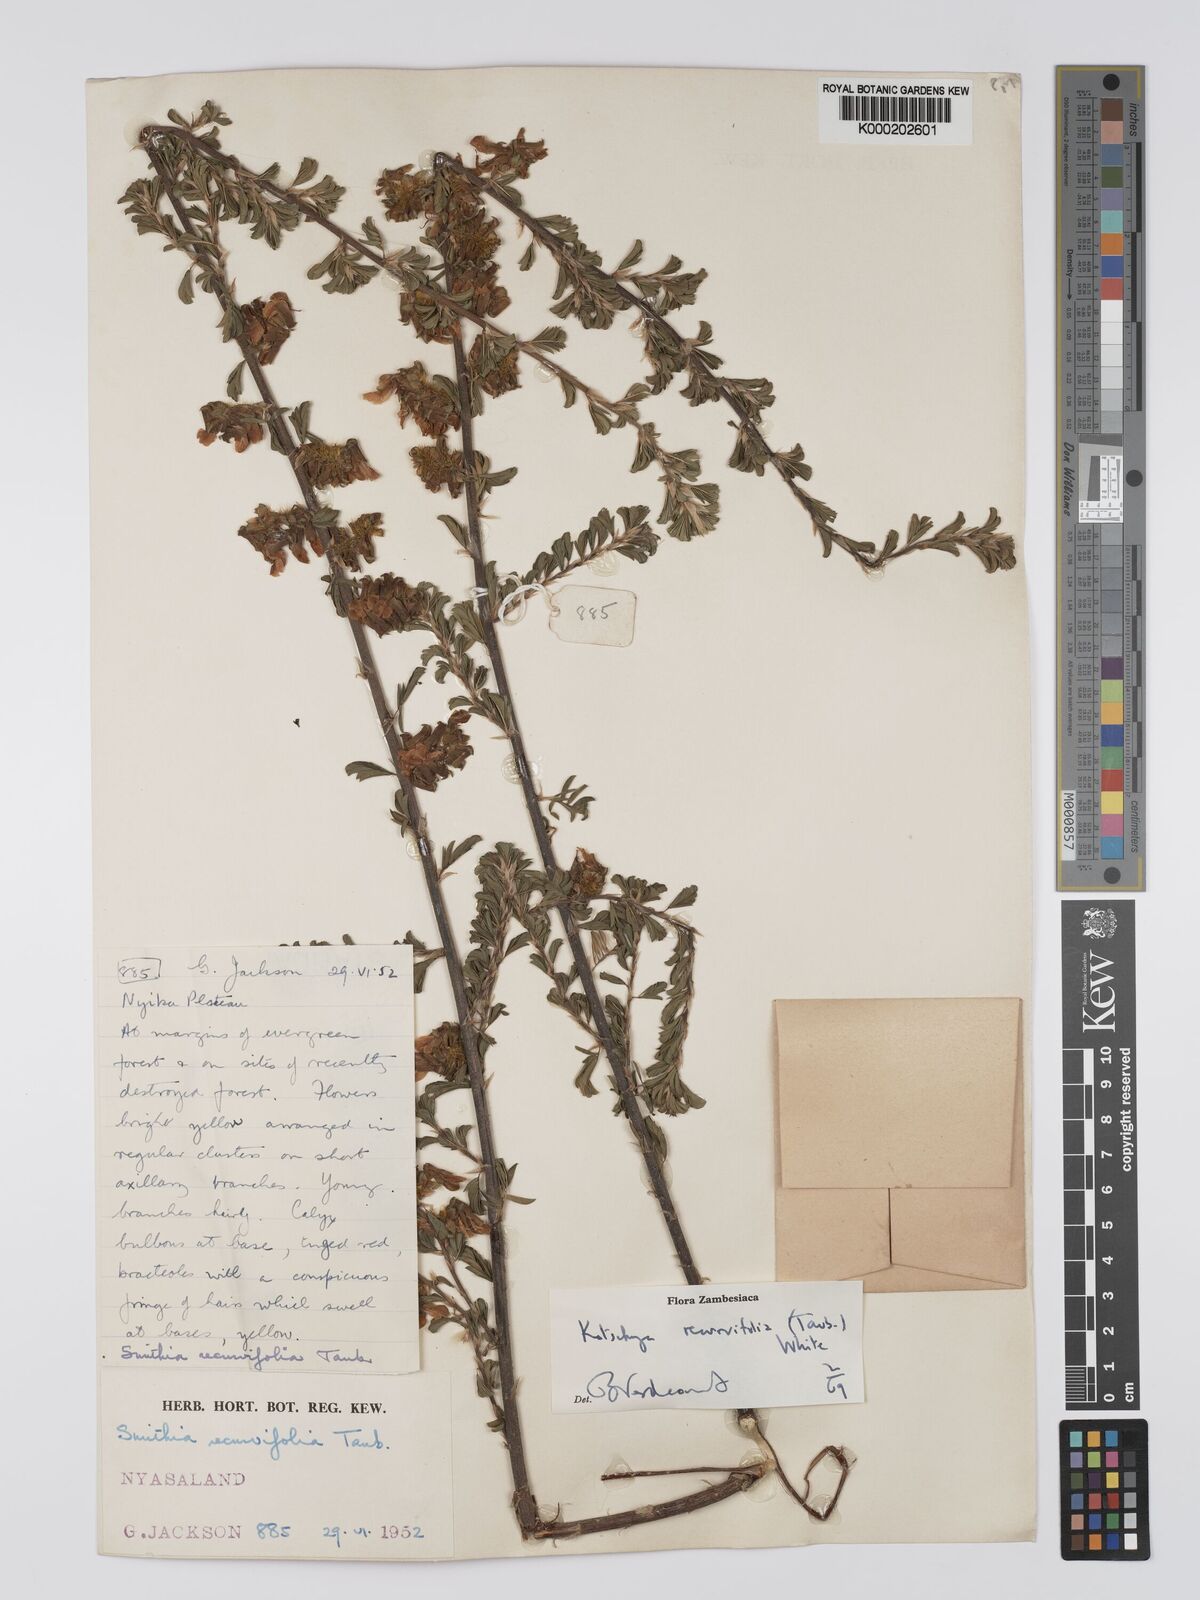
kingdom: Plantae
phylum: Tracheophyta
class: Magnoliopsida
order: Fabales
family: Fabaceae
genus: Kotschya
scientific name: Kotschya recurvifolia
